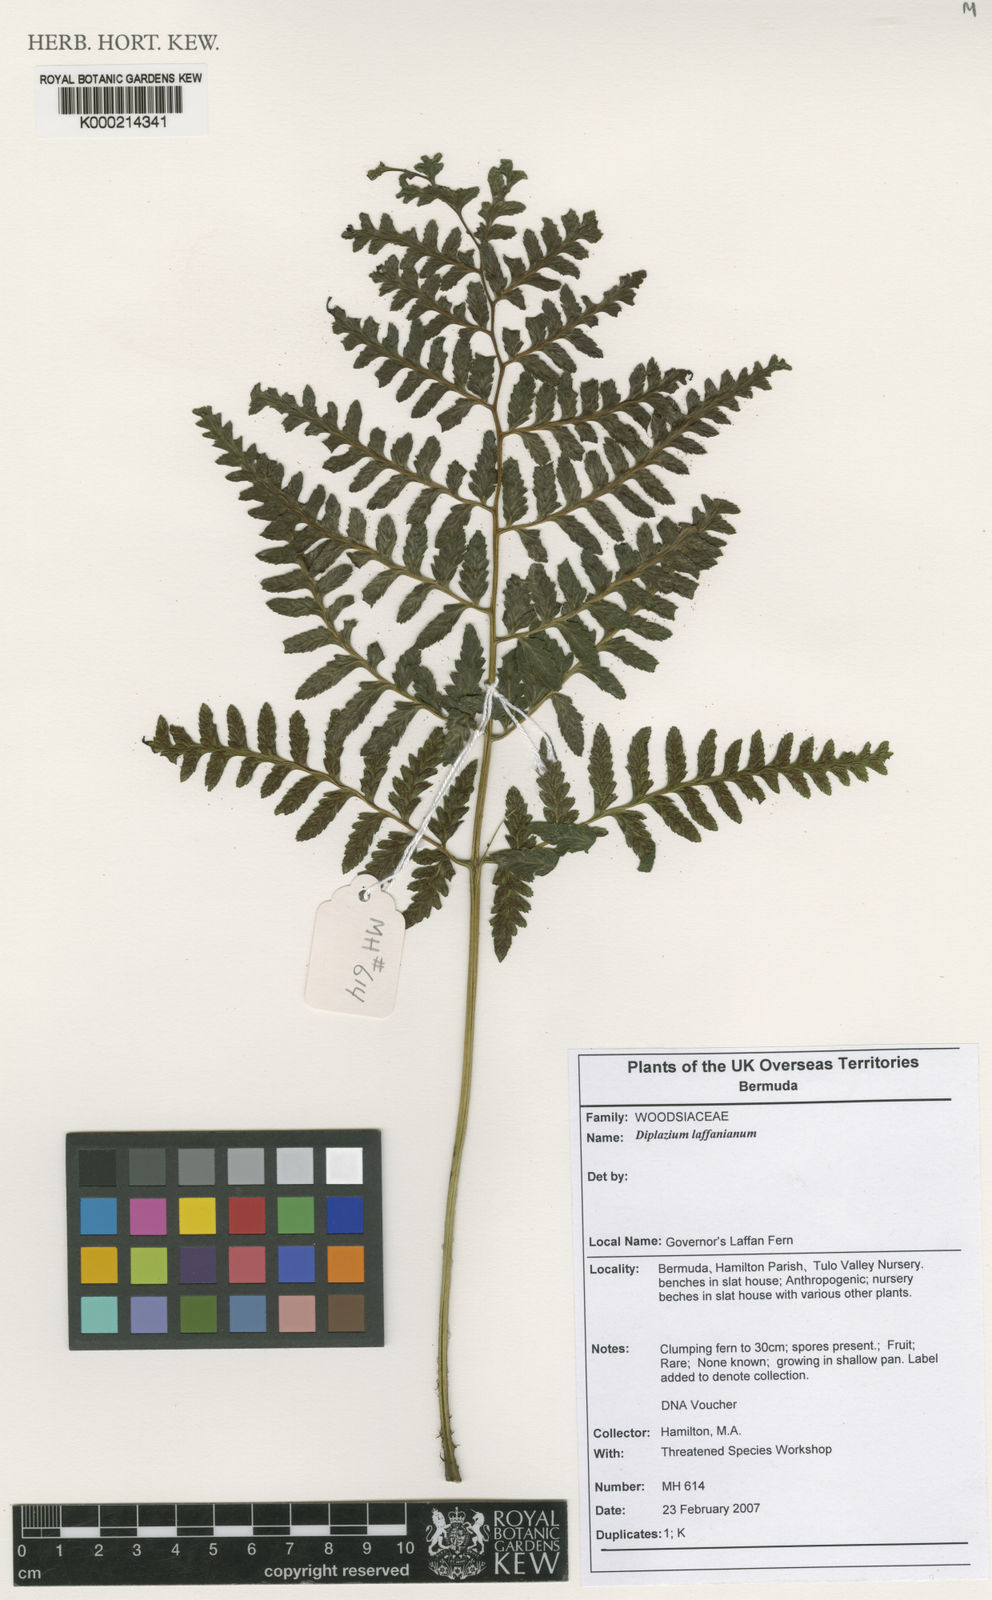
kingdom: Plantae
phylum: Tracheophyta
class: Polypodiopsida
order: Polypodiales
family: Athyriaceae
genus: Diplazium
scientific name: Diplazium laffanianum
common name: Governor laffan's fern
